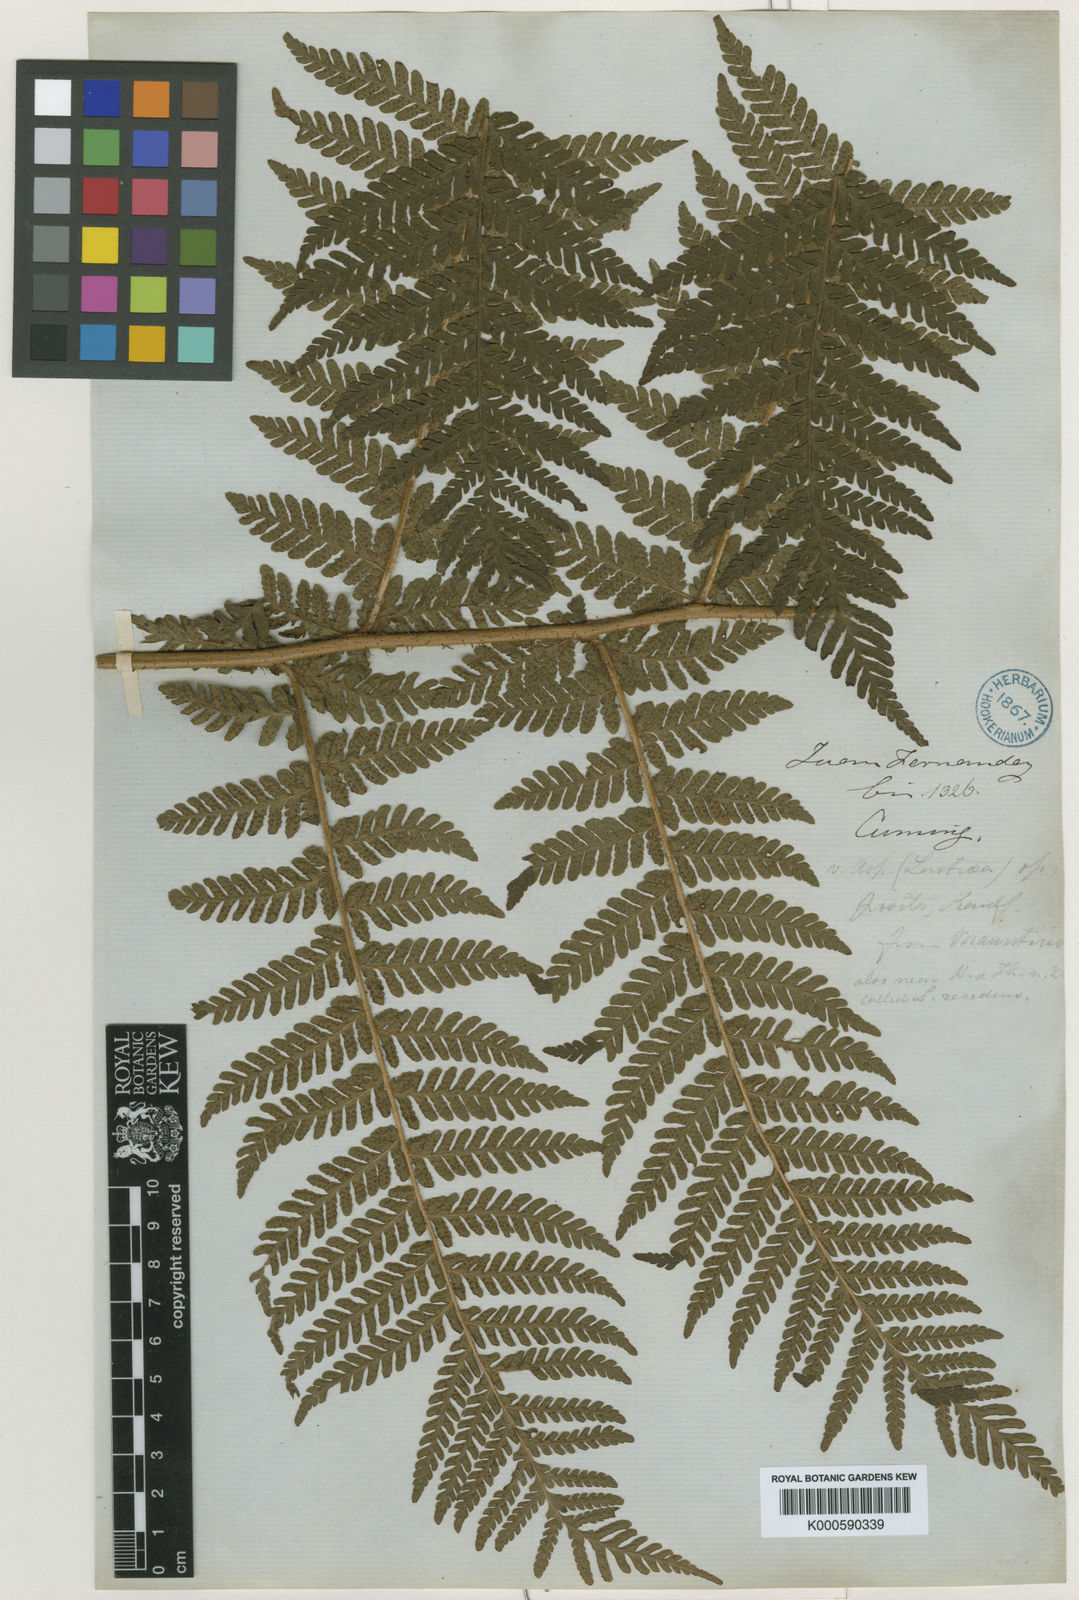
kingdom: Plantae
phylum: Tracheophyta
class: Polypodiopsida
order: Polypodiales
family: Dryopteridaceae
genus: Megalastrum
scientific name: Megalastrum inaequalifolium
